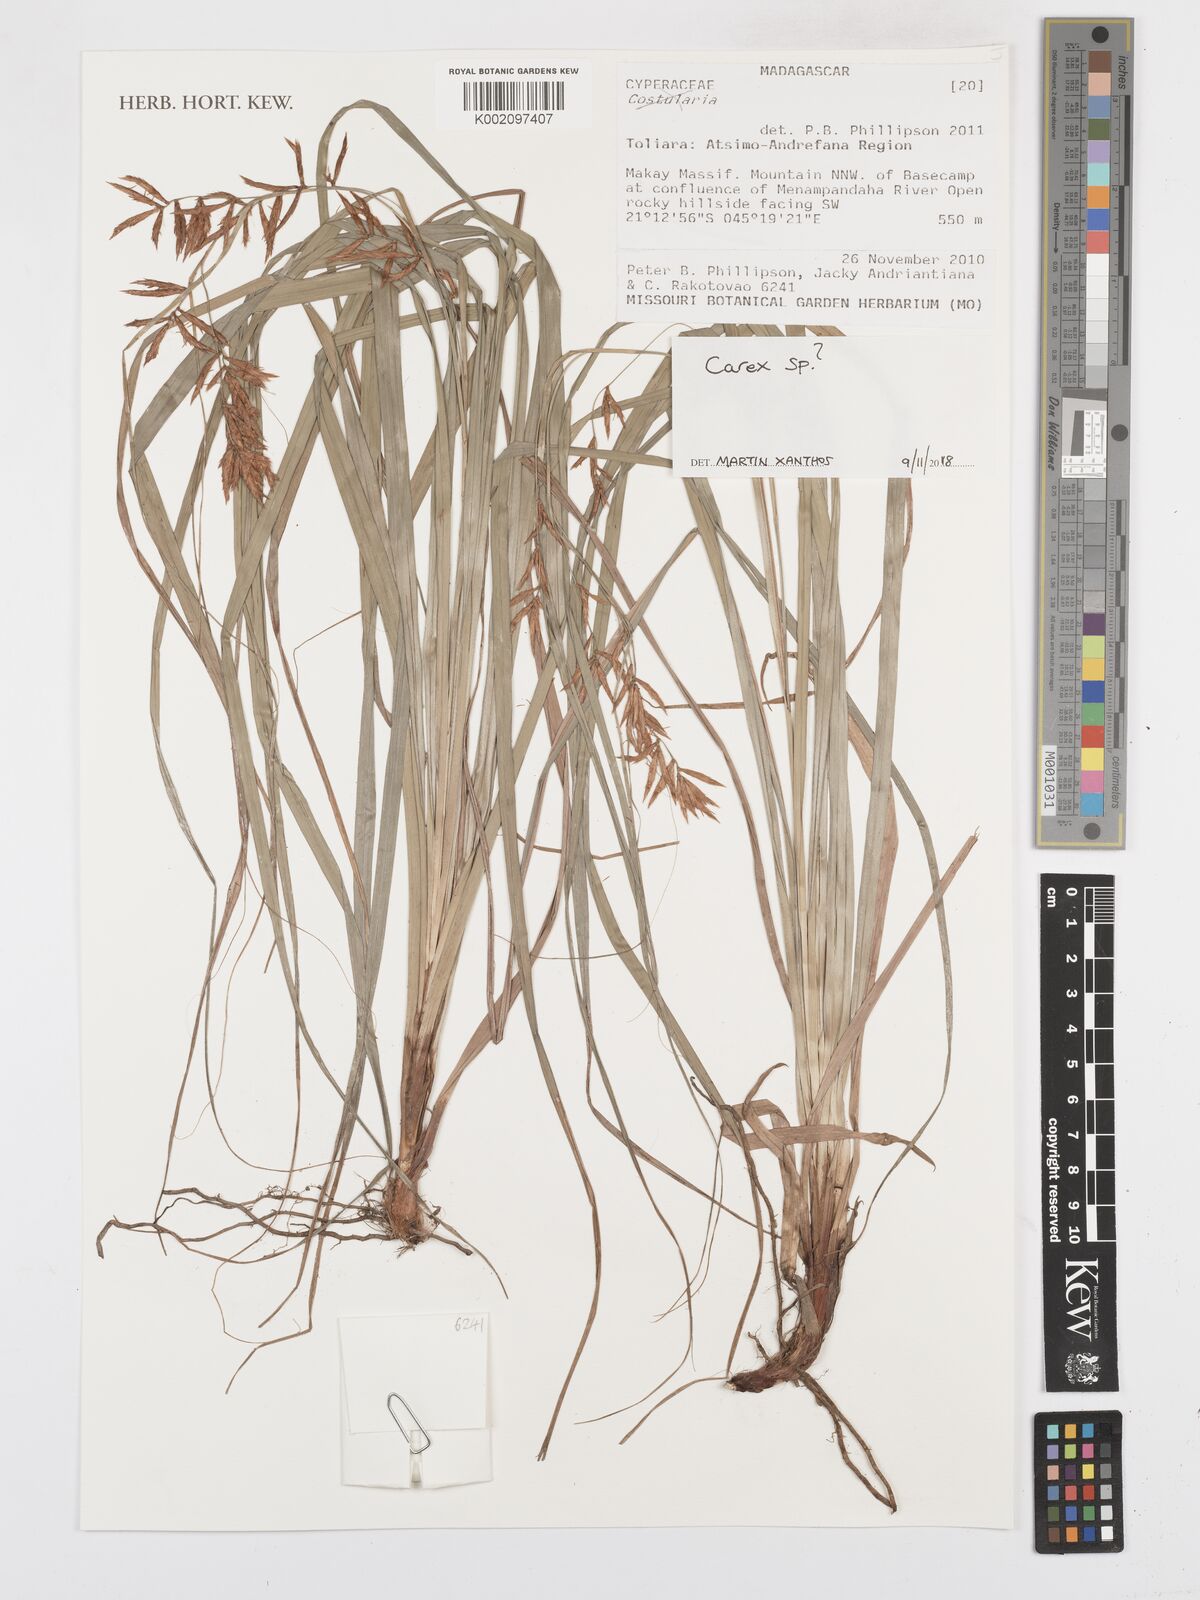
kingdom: Plantae
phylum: Tracheophyta
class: Liliopsida
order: Poales
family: Cyperaceae
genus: Carex
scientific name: Carex
